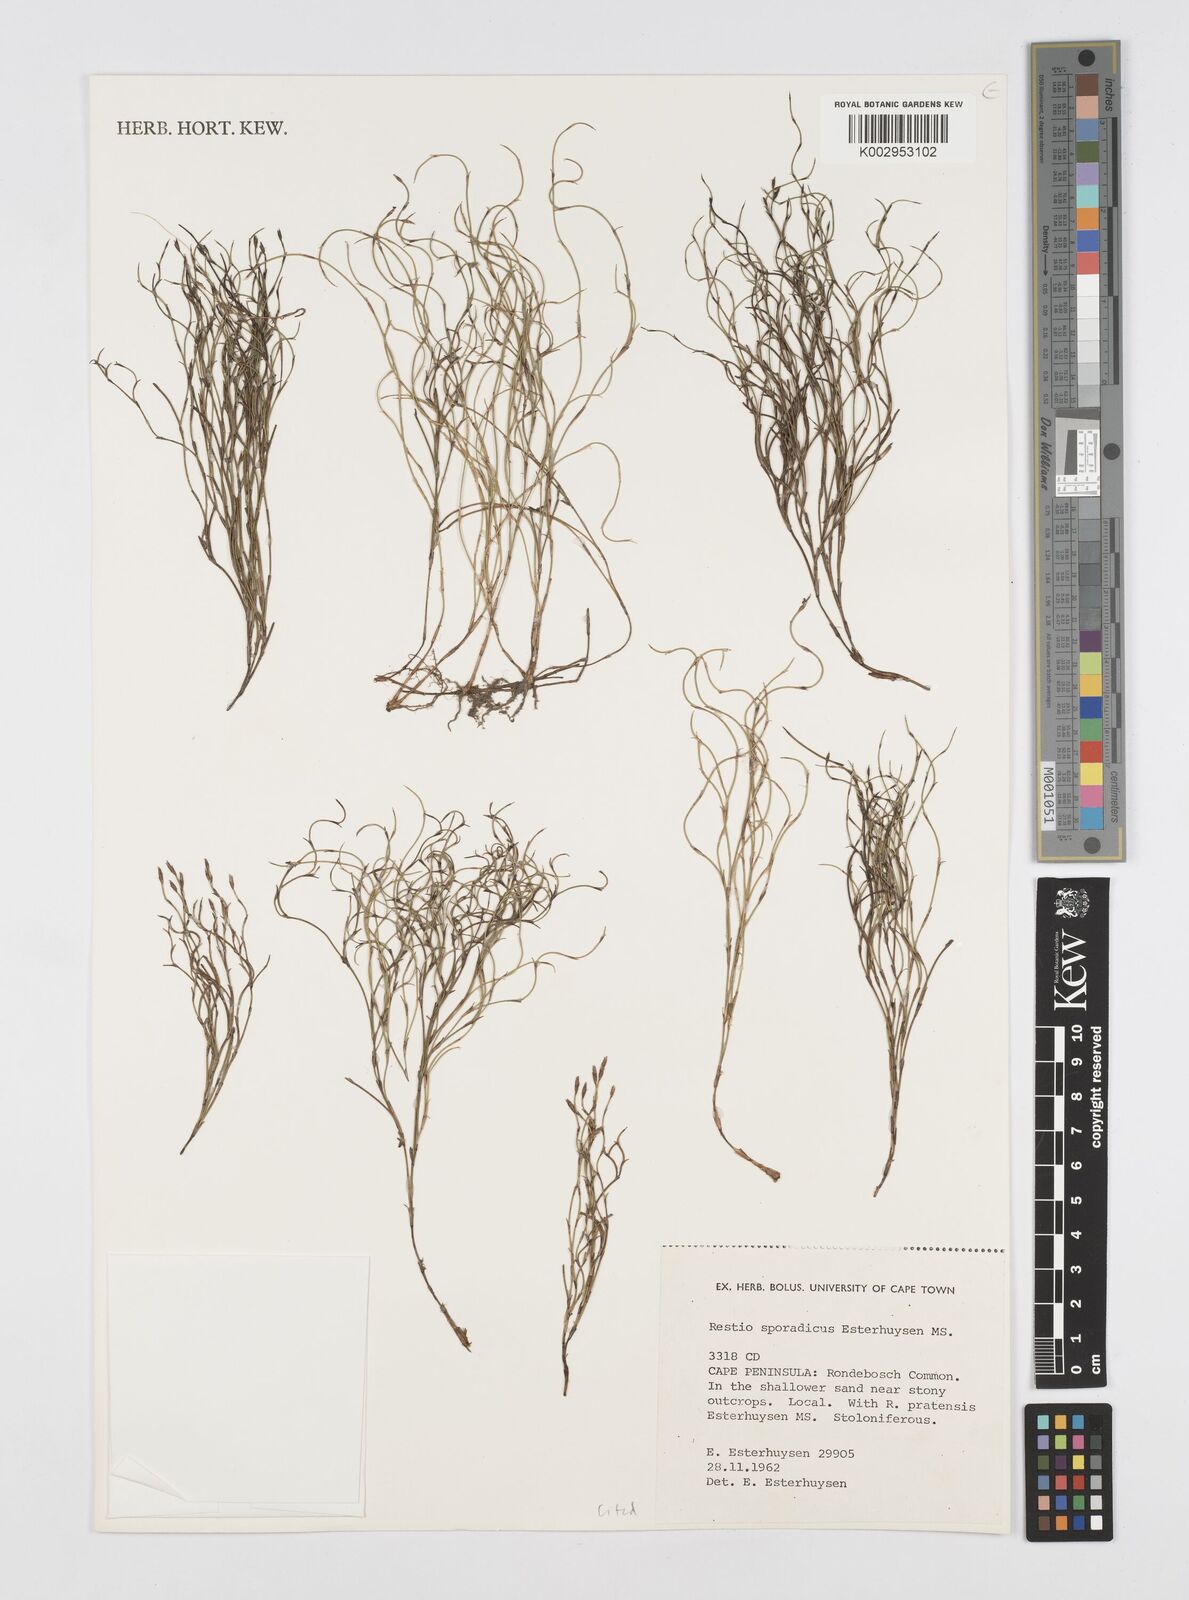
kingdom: Plantae
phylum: Tracheophyta
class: Liliopsida
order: Poales
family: Restionaceae
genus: Restio
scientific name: Restio sporadicus
